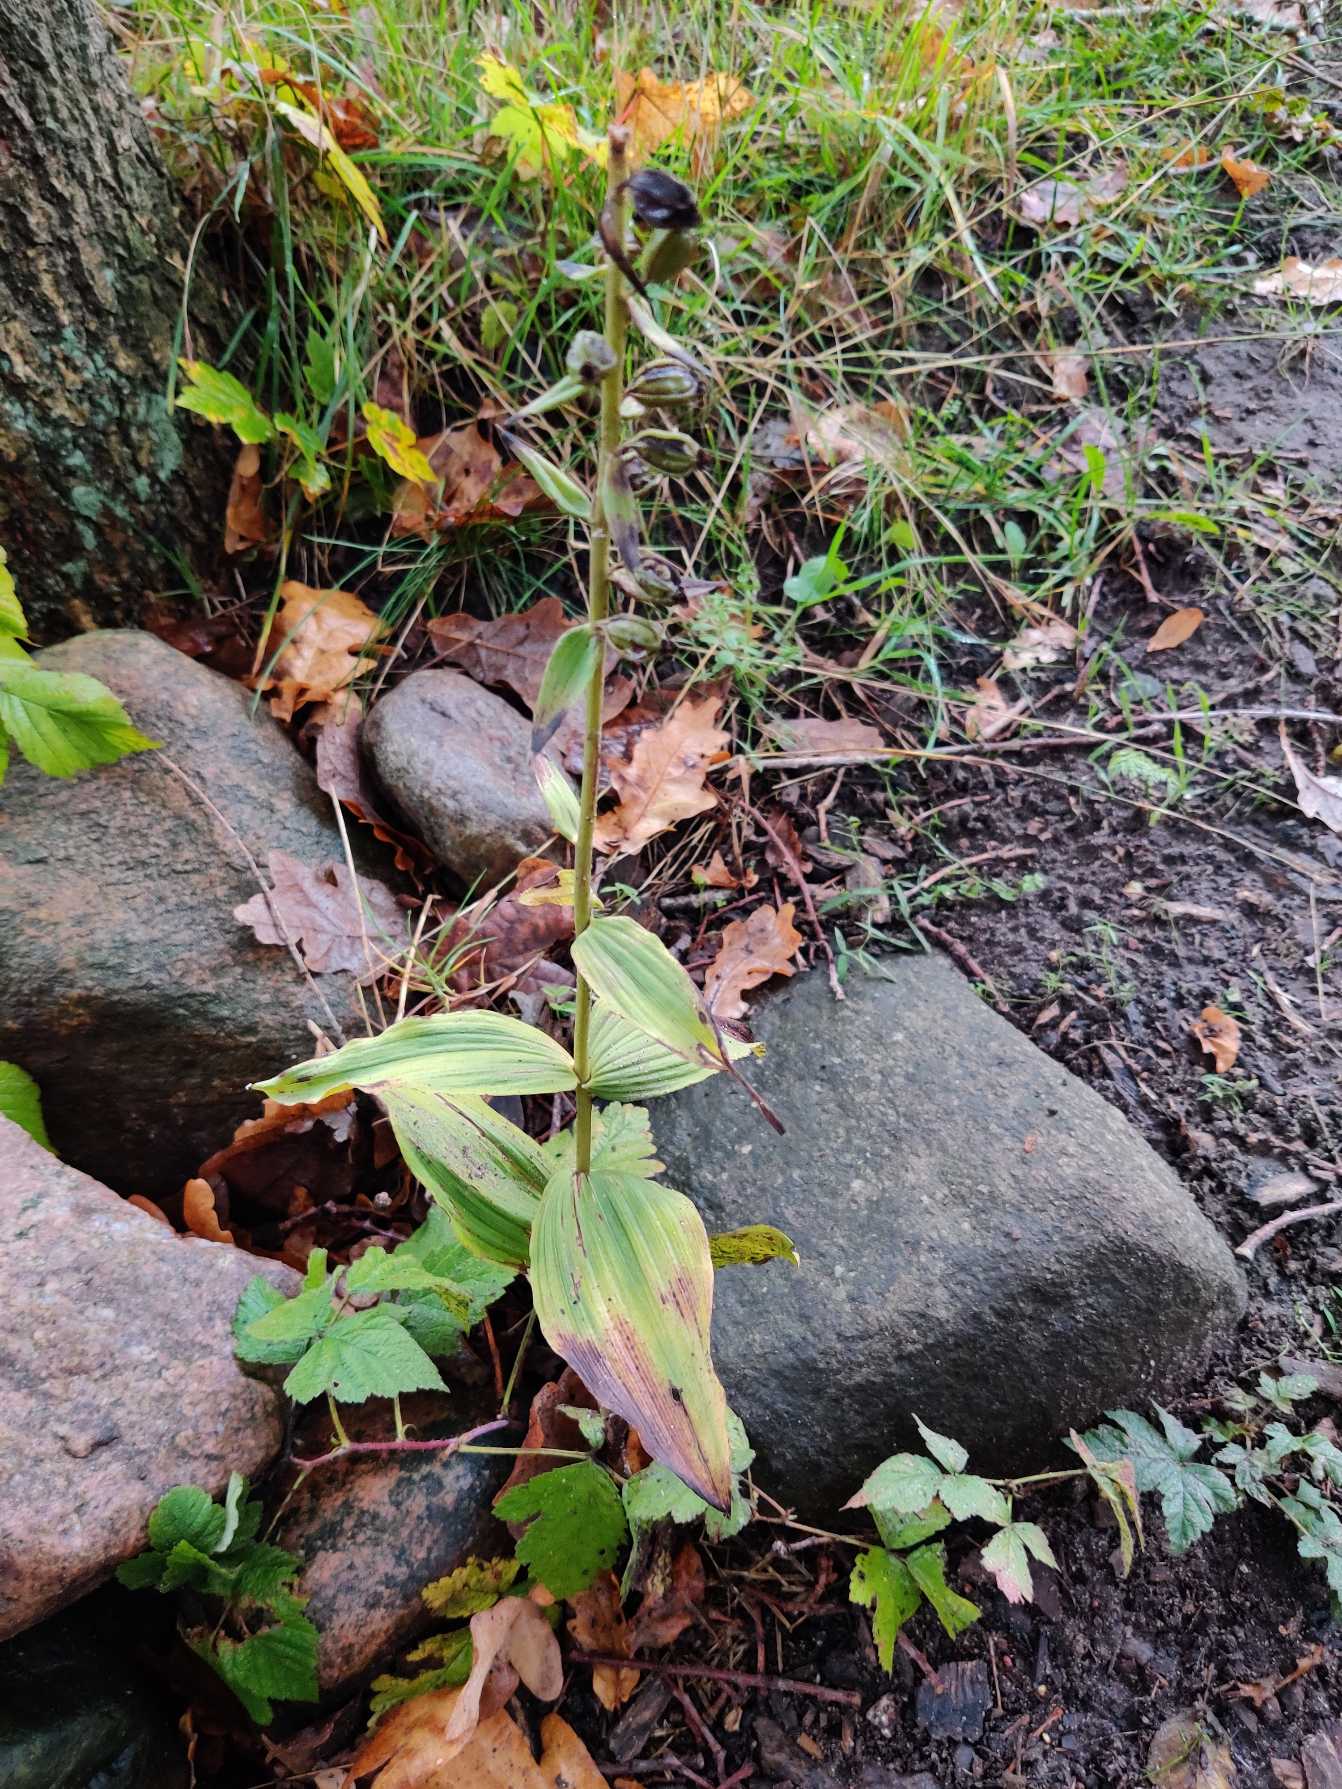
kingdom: Plantae
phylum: Tracheophyta
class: Liliopsida
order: Asparagales
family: Orchidaceae
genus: Epipactis
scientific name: Epipactis helleborine
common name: Skov-hullæbe
